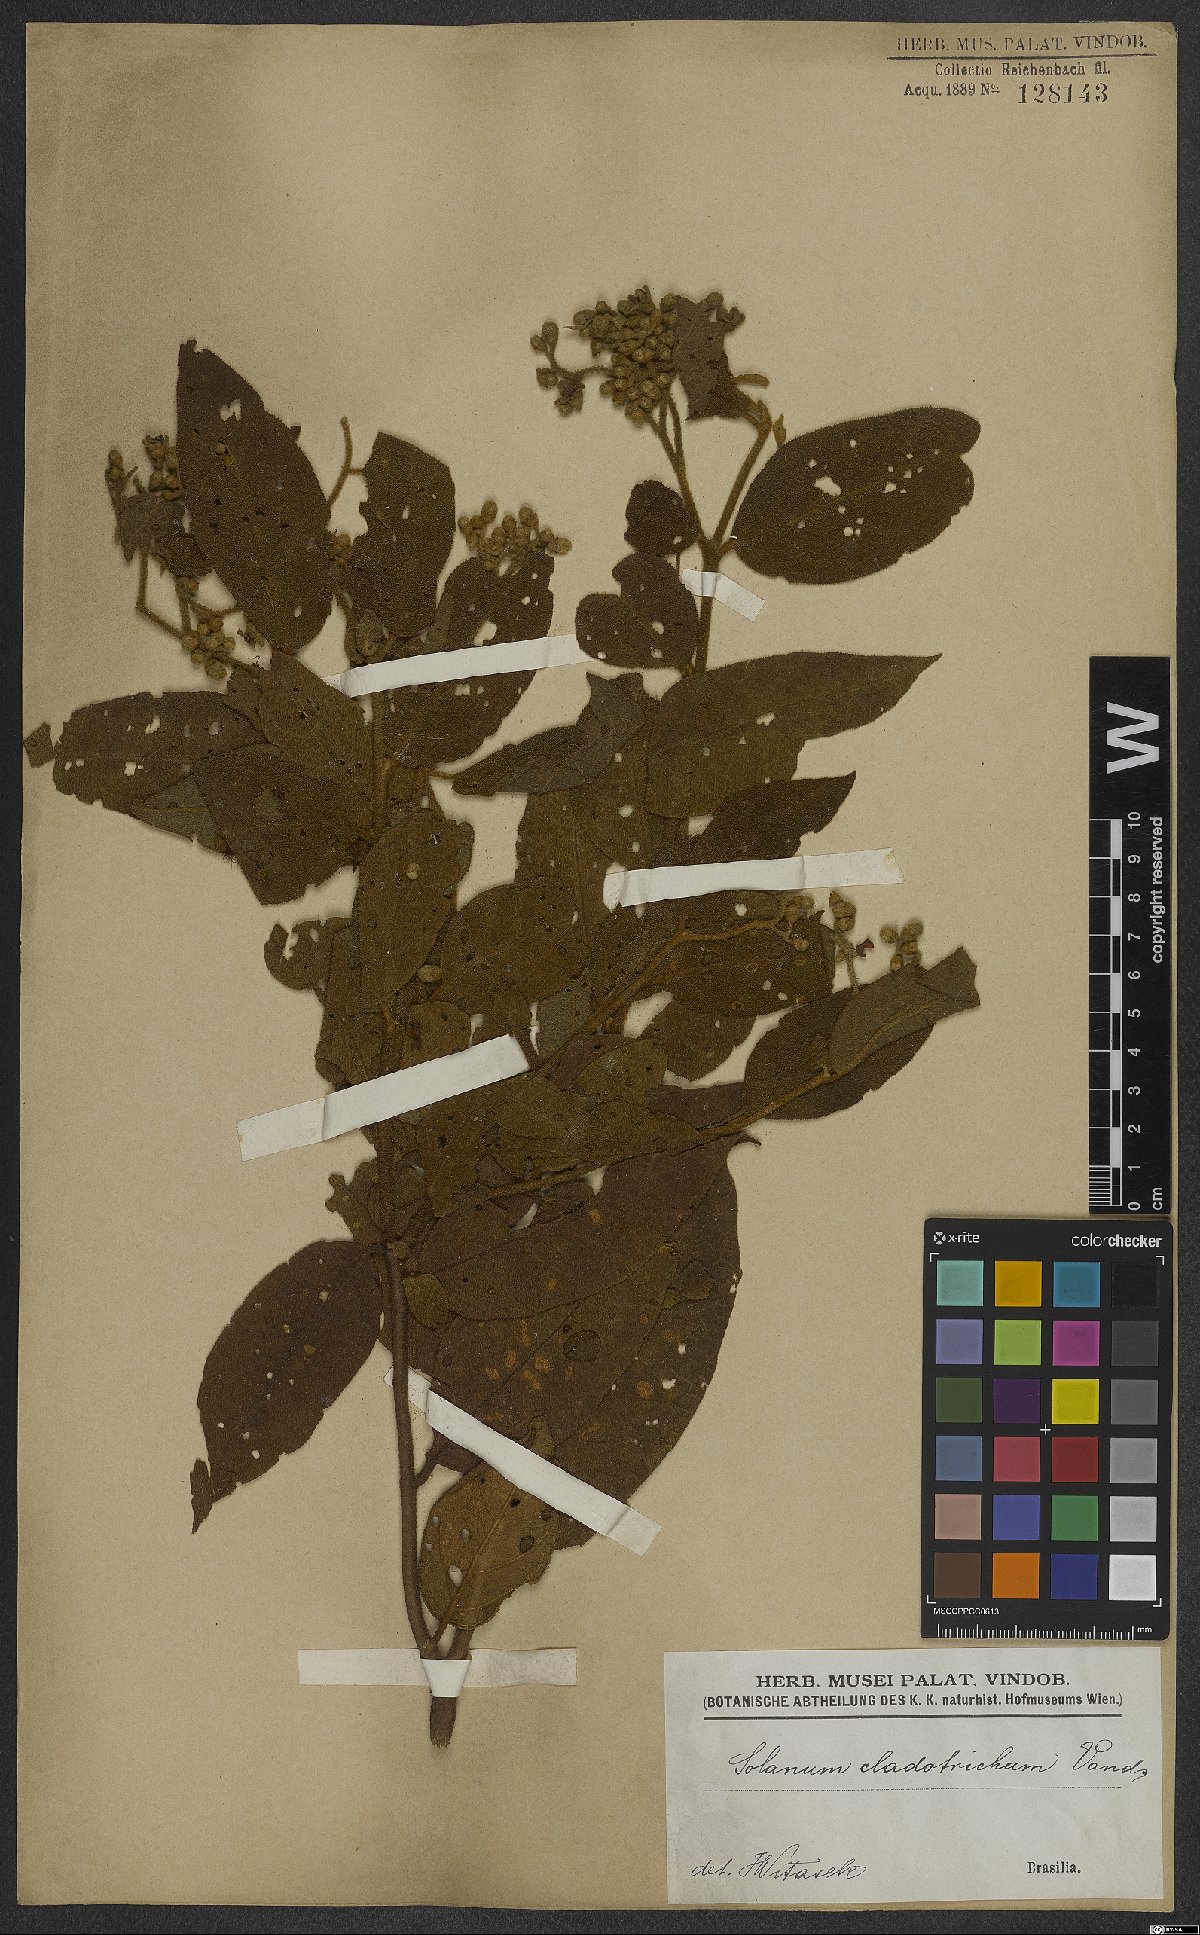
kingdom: Plantae
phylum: Tracheophyta
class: Magnoliopsida
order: Solanales
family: Solanaceae
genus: Solanum
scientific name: Solanum jussiaei
